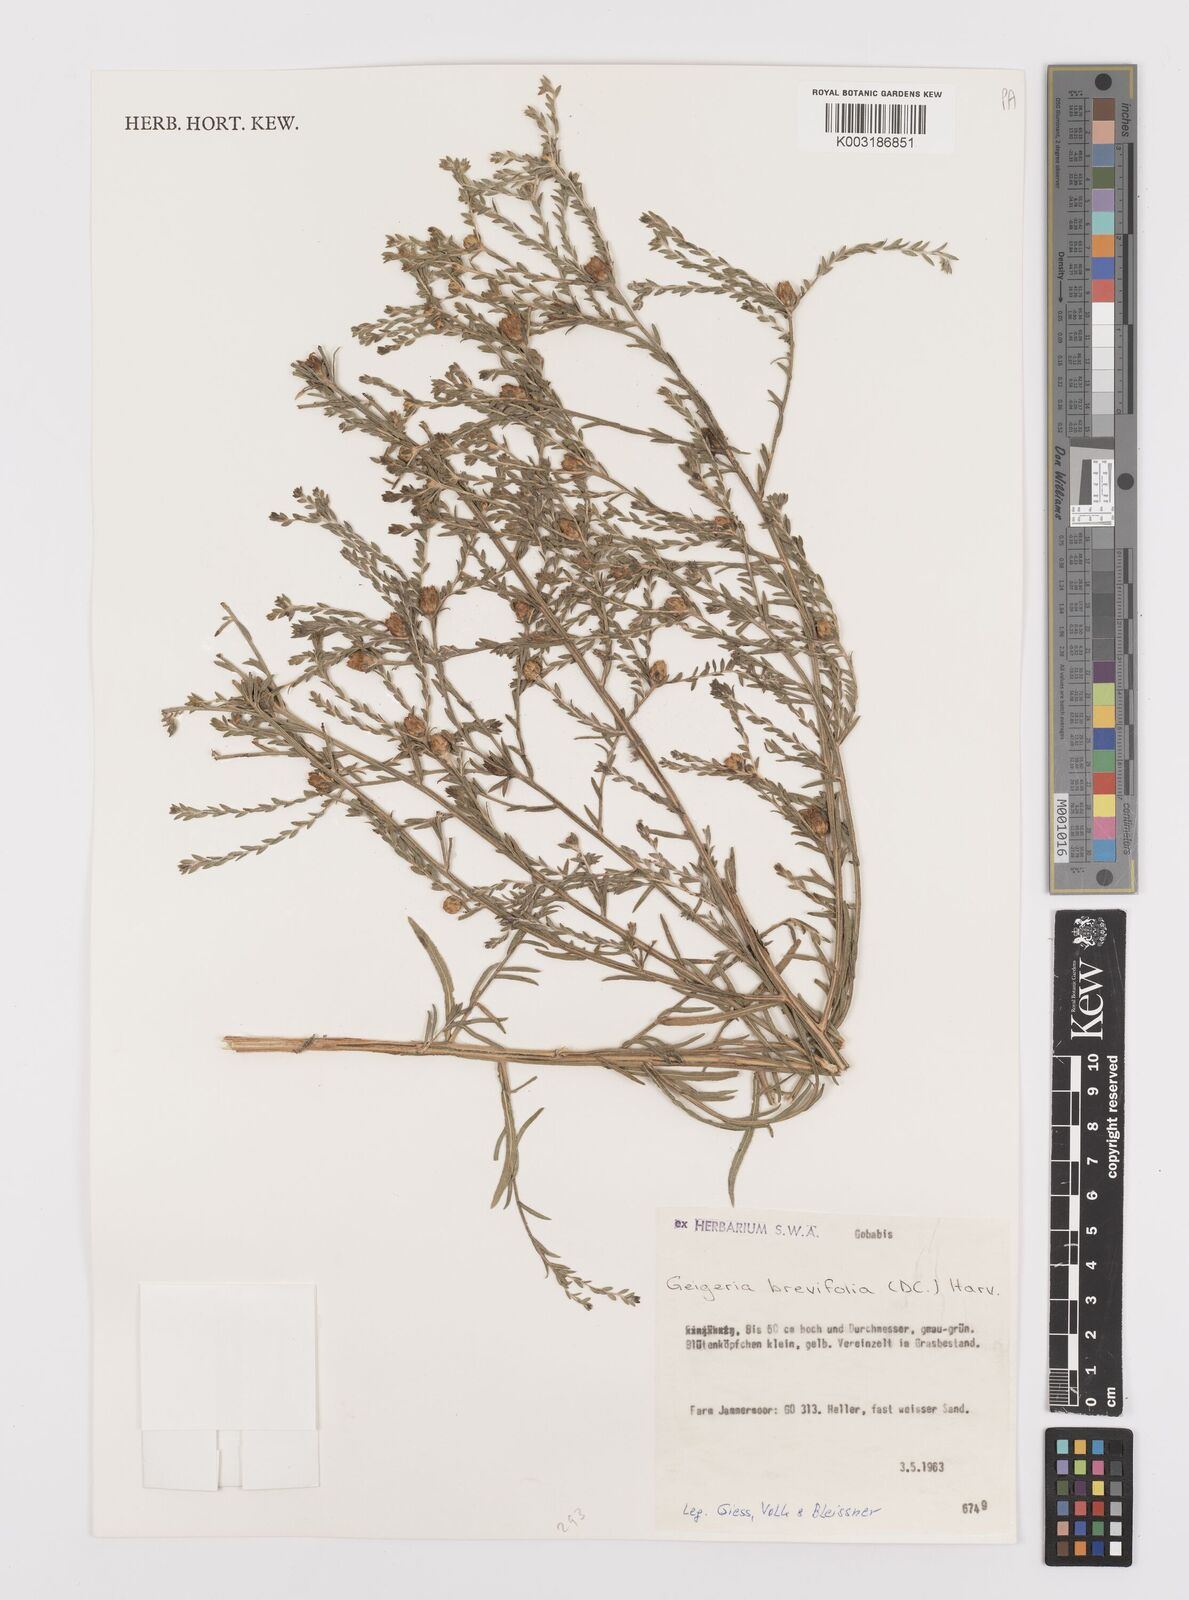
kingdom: Plantae
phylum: Tracheophyta
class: Magnoliopsida
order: Asterales
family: Asteraceae
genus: Geigeria
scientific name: Geigeria brevifolia
